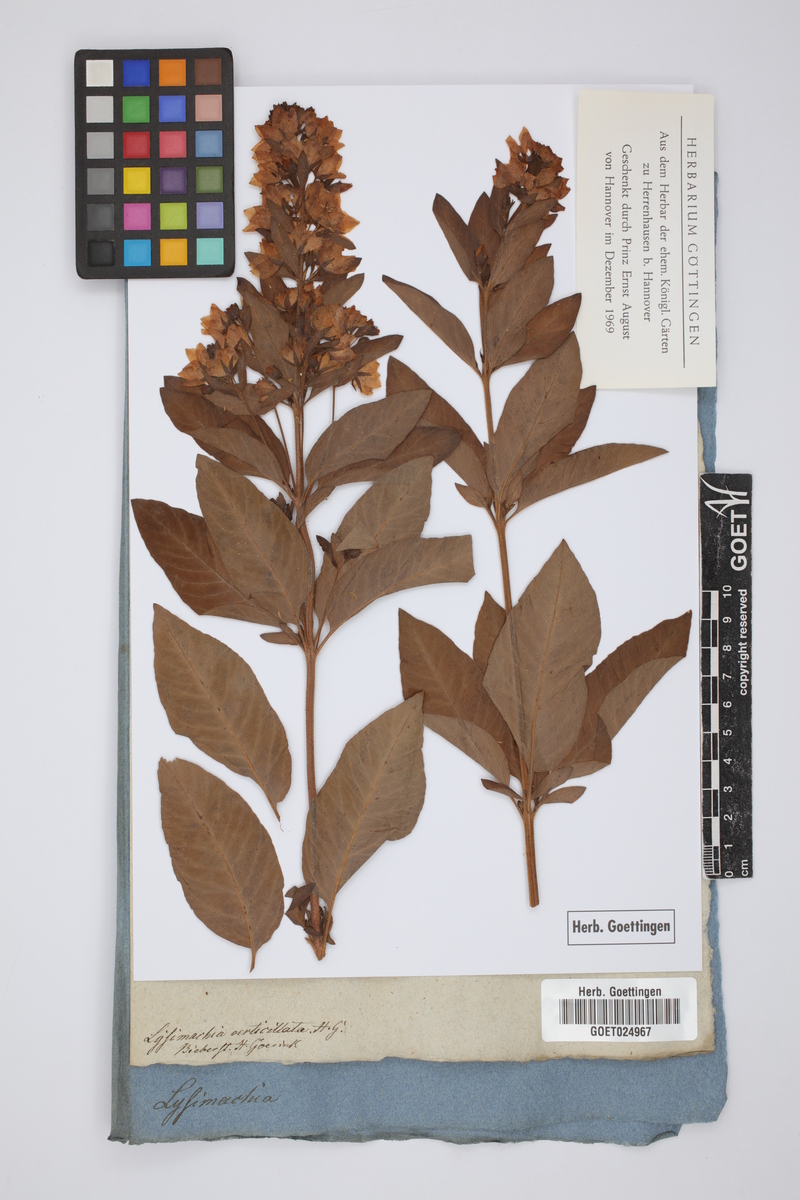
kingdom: Plantae
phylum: Tracheophyta
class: Magnoliopsida
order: Ericales
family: Primulaceae
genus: Lysimachia
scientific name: Lysimachia verticillaris
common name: Yellow loosestrife
